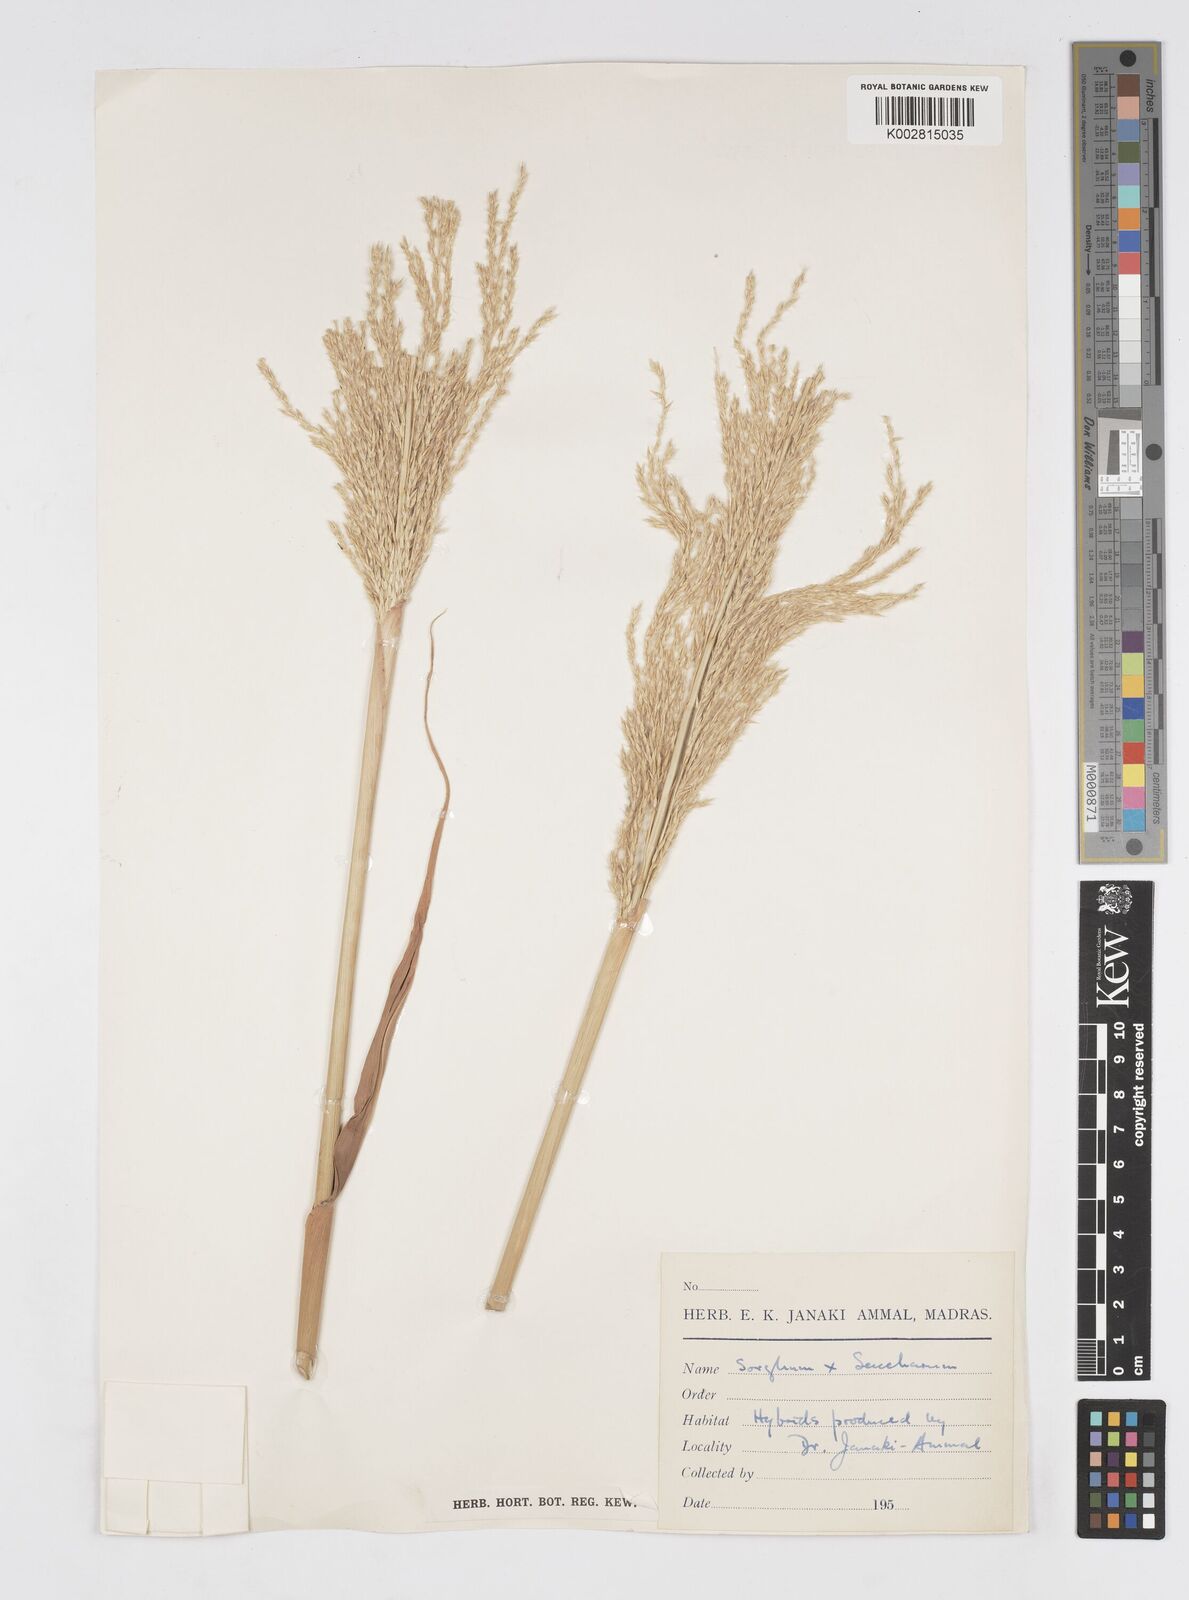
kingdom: Plantae
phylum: Tracheophyta
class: Liliopsida
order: Poales
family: Poaceae
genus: Saccharum
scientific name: Saccharum
